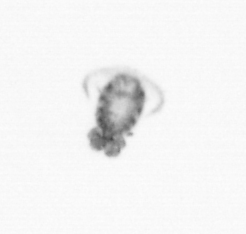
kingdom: Animalia
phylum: Arthropoda
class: Copepoda
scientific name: Copepoda
